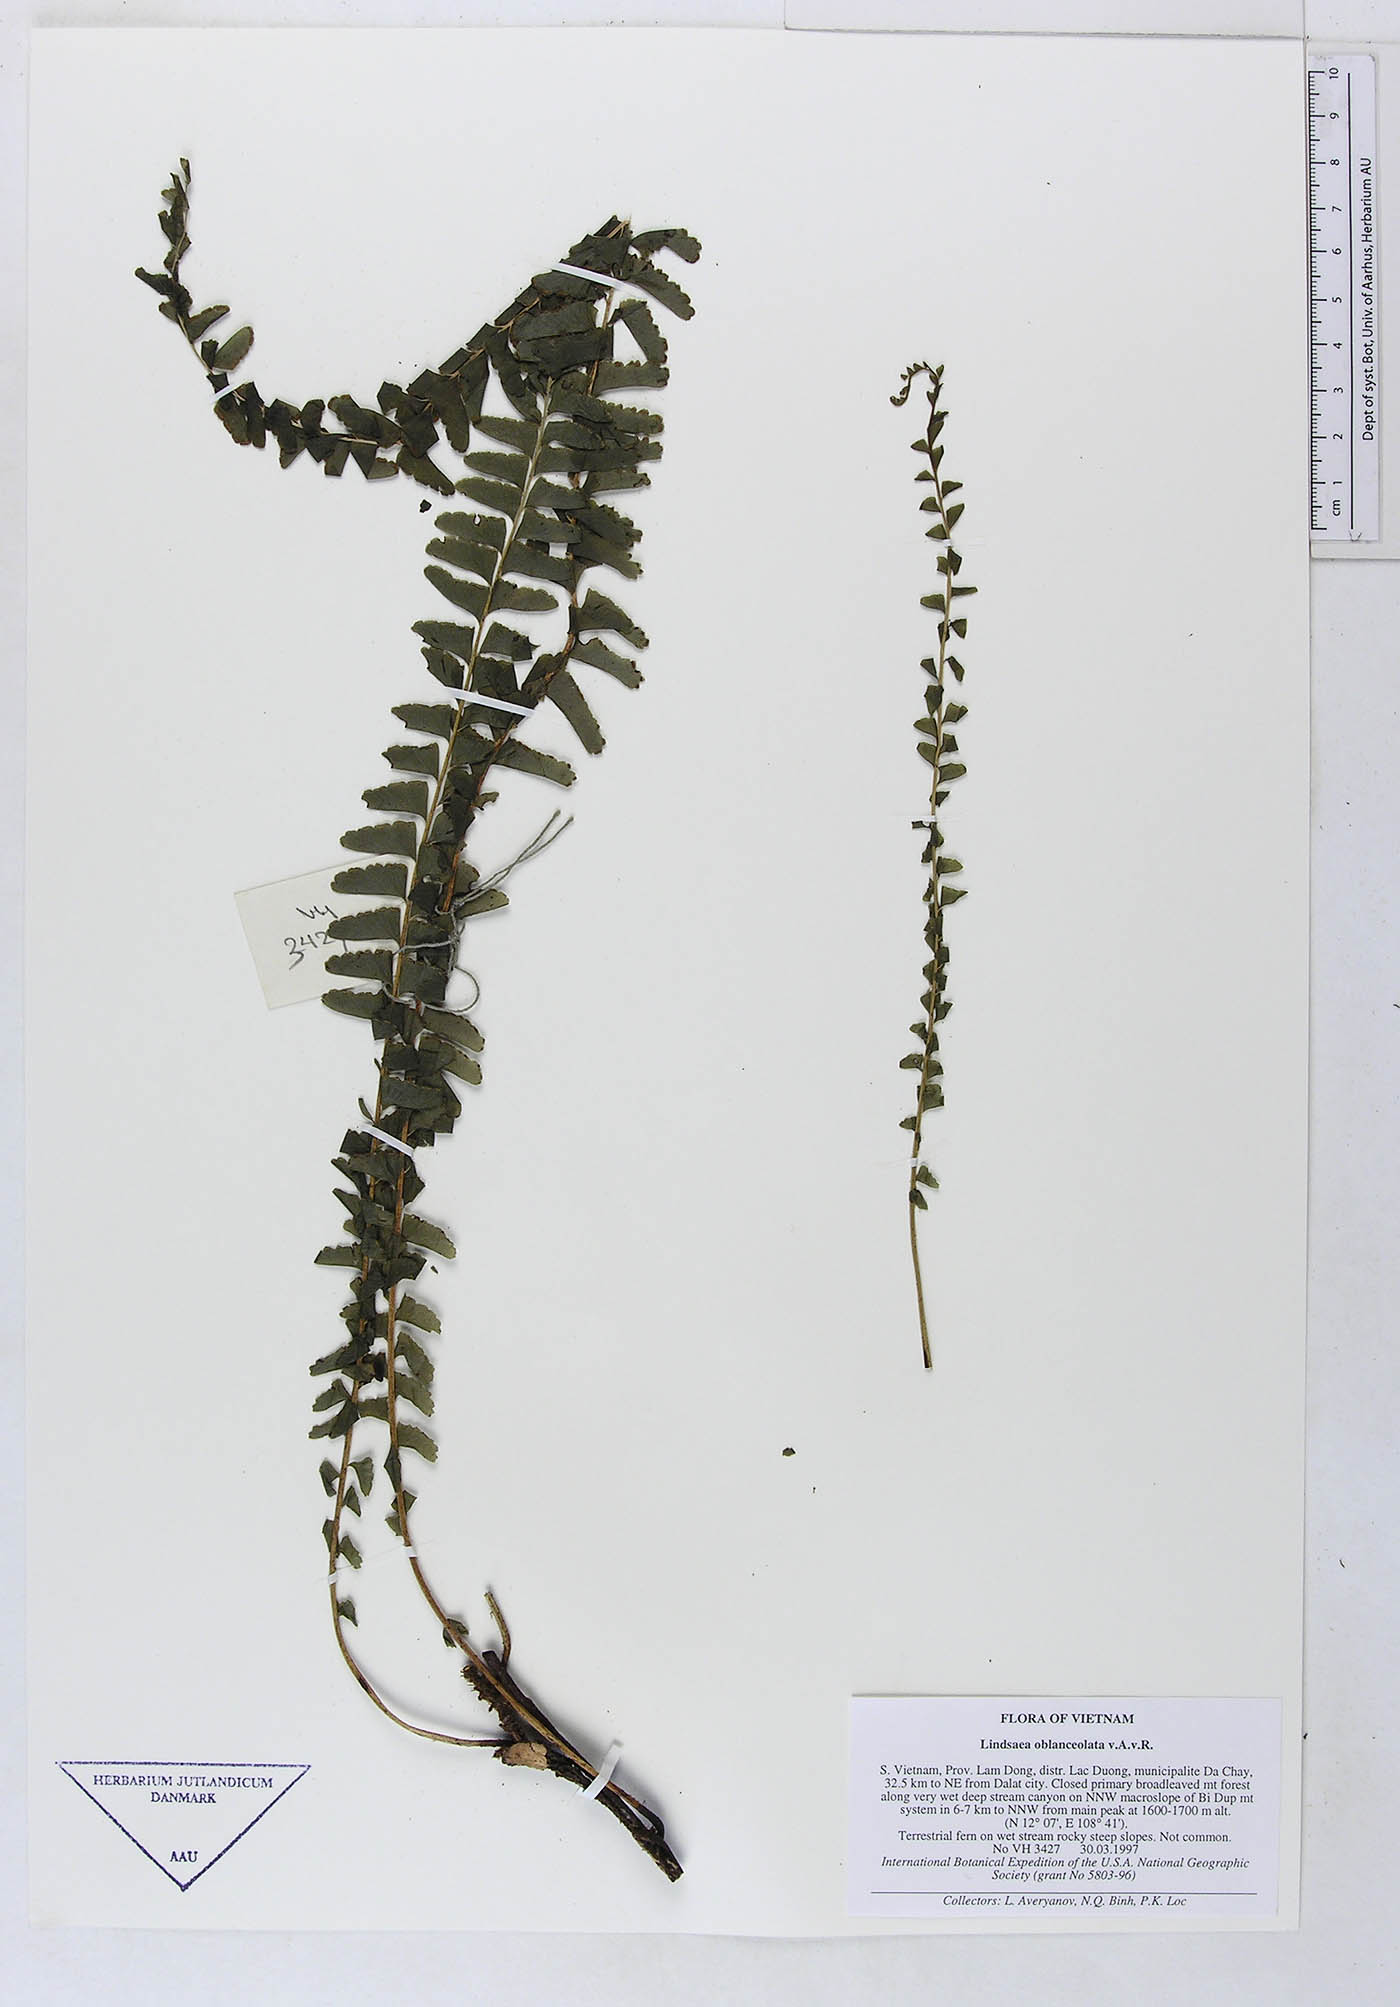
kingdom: Plantae
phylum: Tracheophyta
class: Polypodiopsida
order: Polypodiales
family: Dennstaedtiaceae
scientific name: Dennstaedtiaceae
